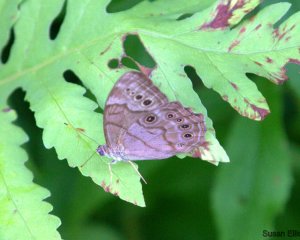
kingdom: Animalia
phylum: Arthropoda
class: Insecta
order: Lepidoptera
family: Nymphalidae
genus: Lethe
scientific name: Lethe anthedon
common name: Northern Pearly-Eye
